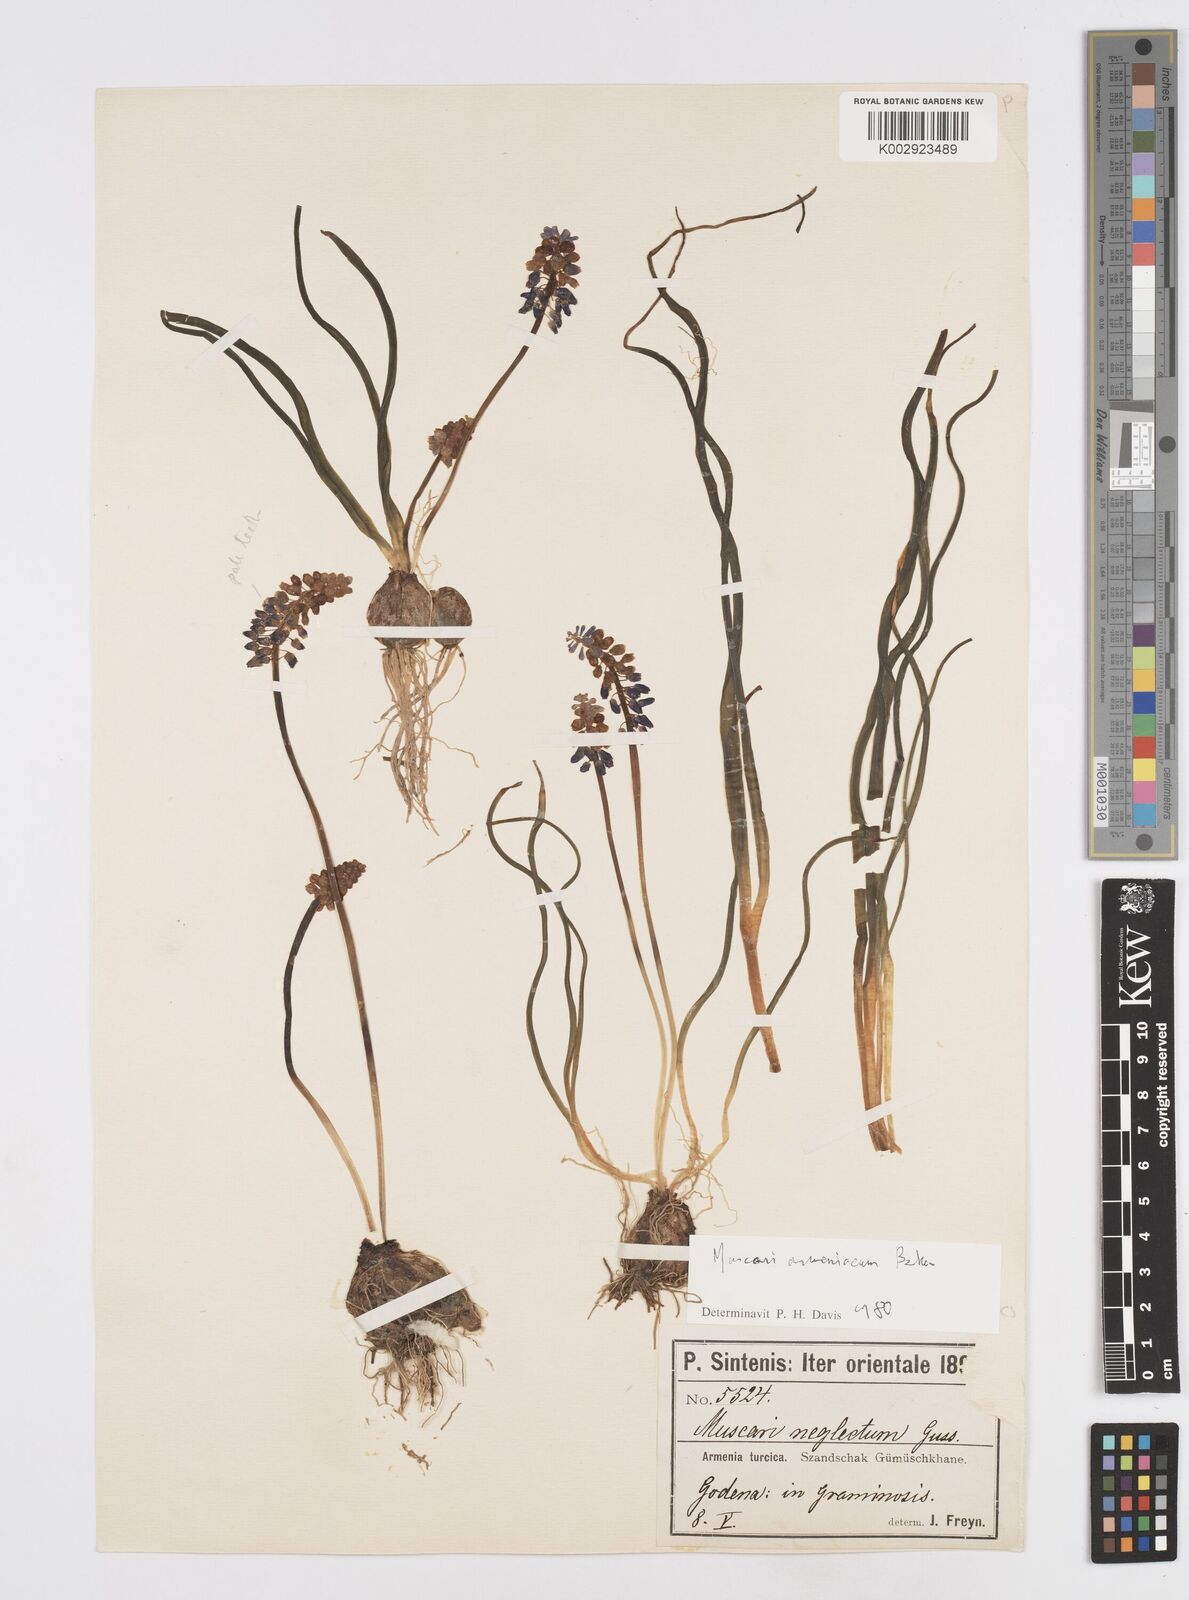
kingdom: Plantae
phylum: Tracheophyta
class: Liliopsida
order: Asparagales
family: Asparagaceae
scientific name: Asparagaceae
